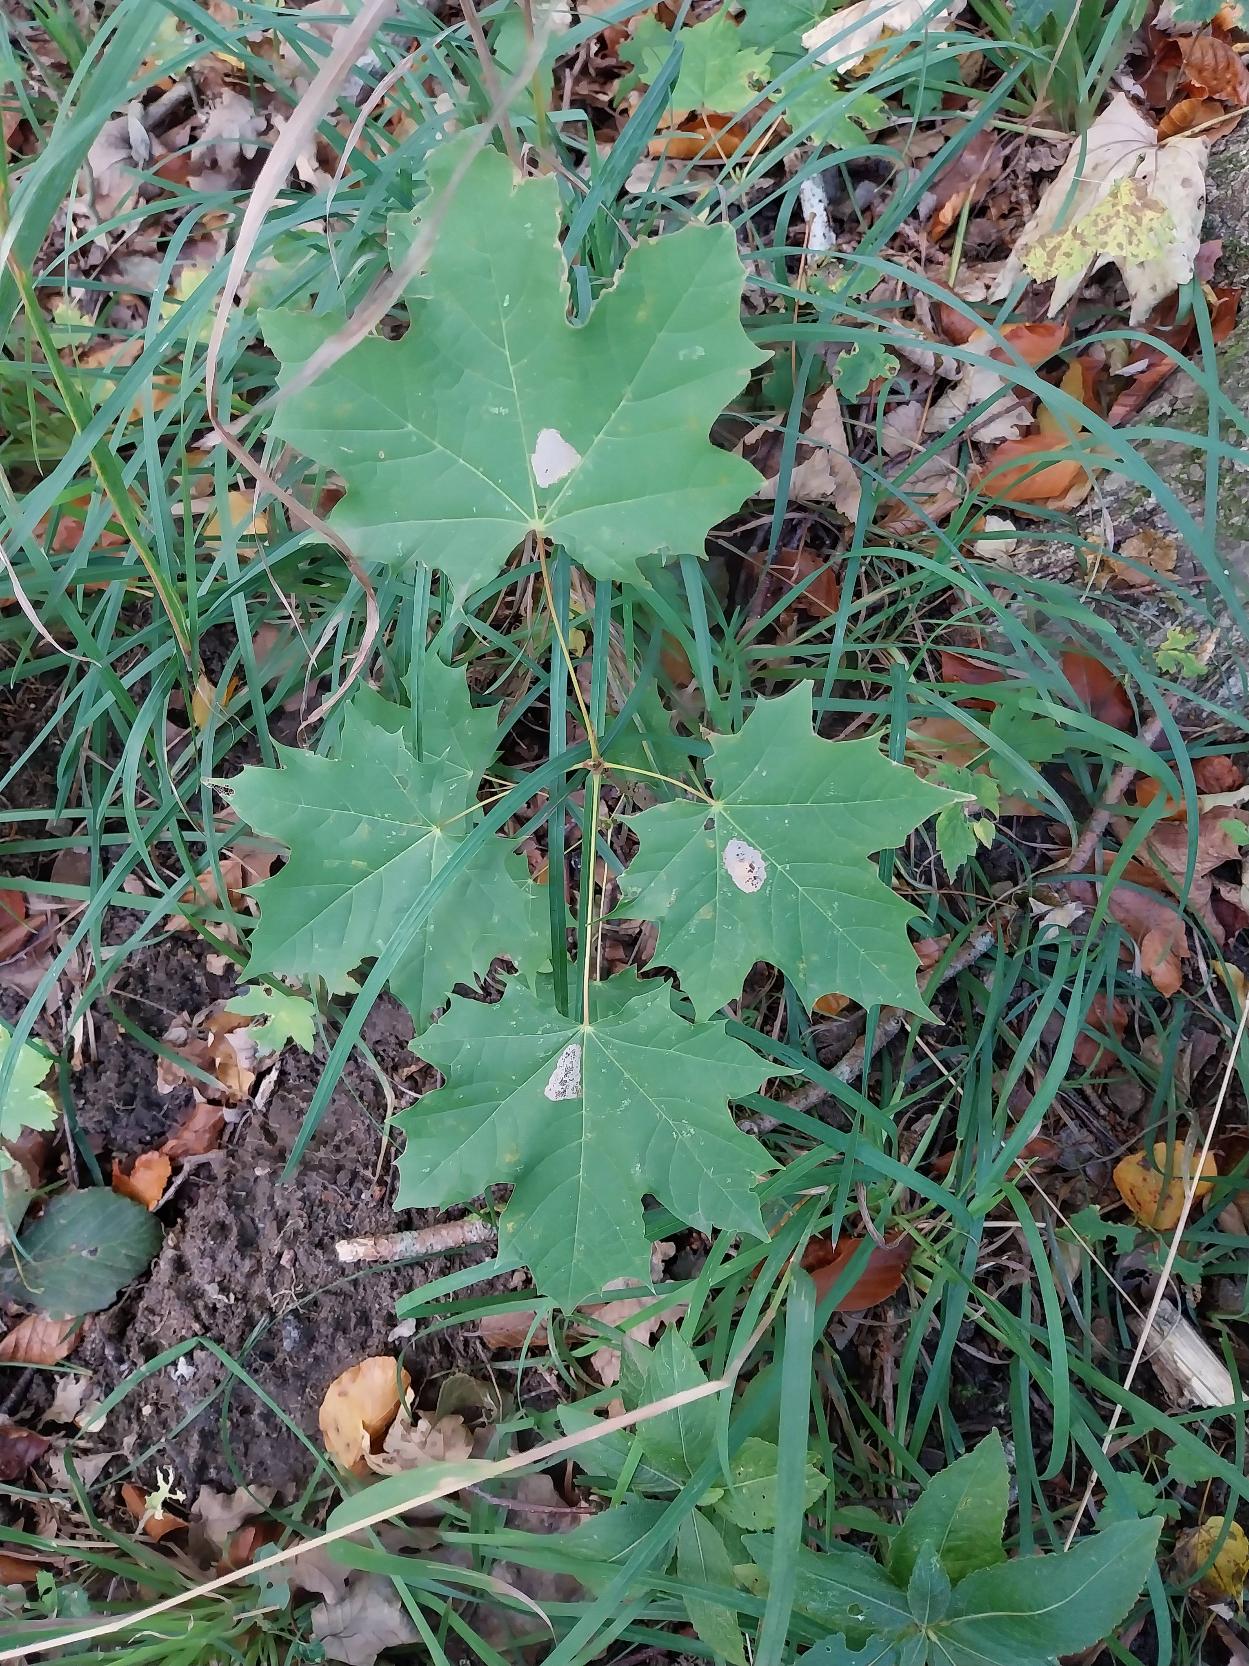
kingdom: Plantae
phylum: Tracheophyta
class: Magnoliopsida
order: Sapindales
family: Sapindaceae
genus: Acer
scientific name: Acer platanoides
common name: Spids-løn
